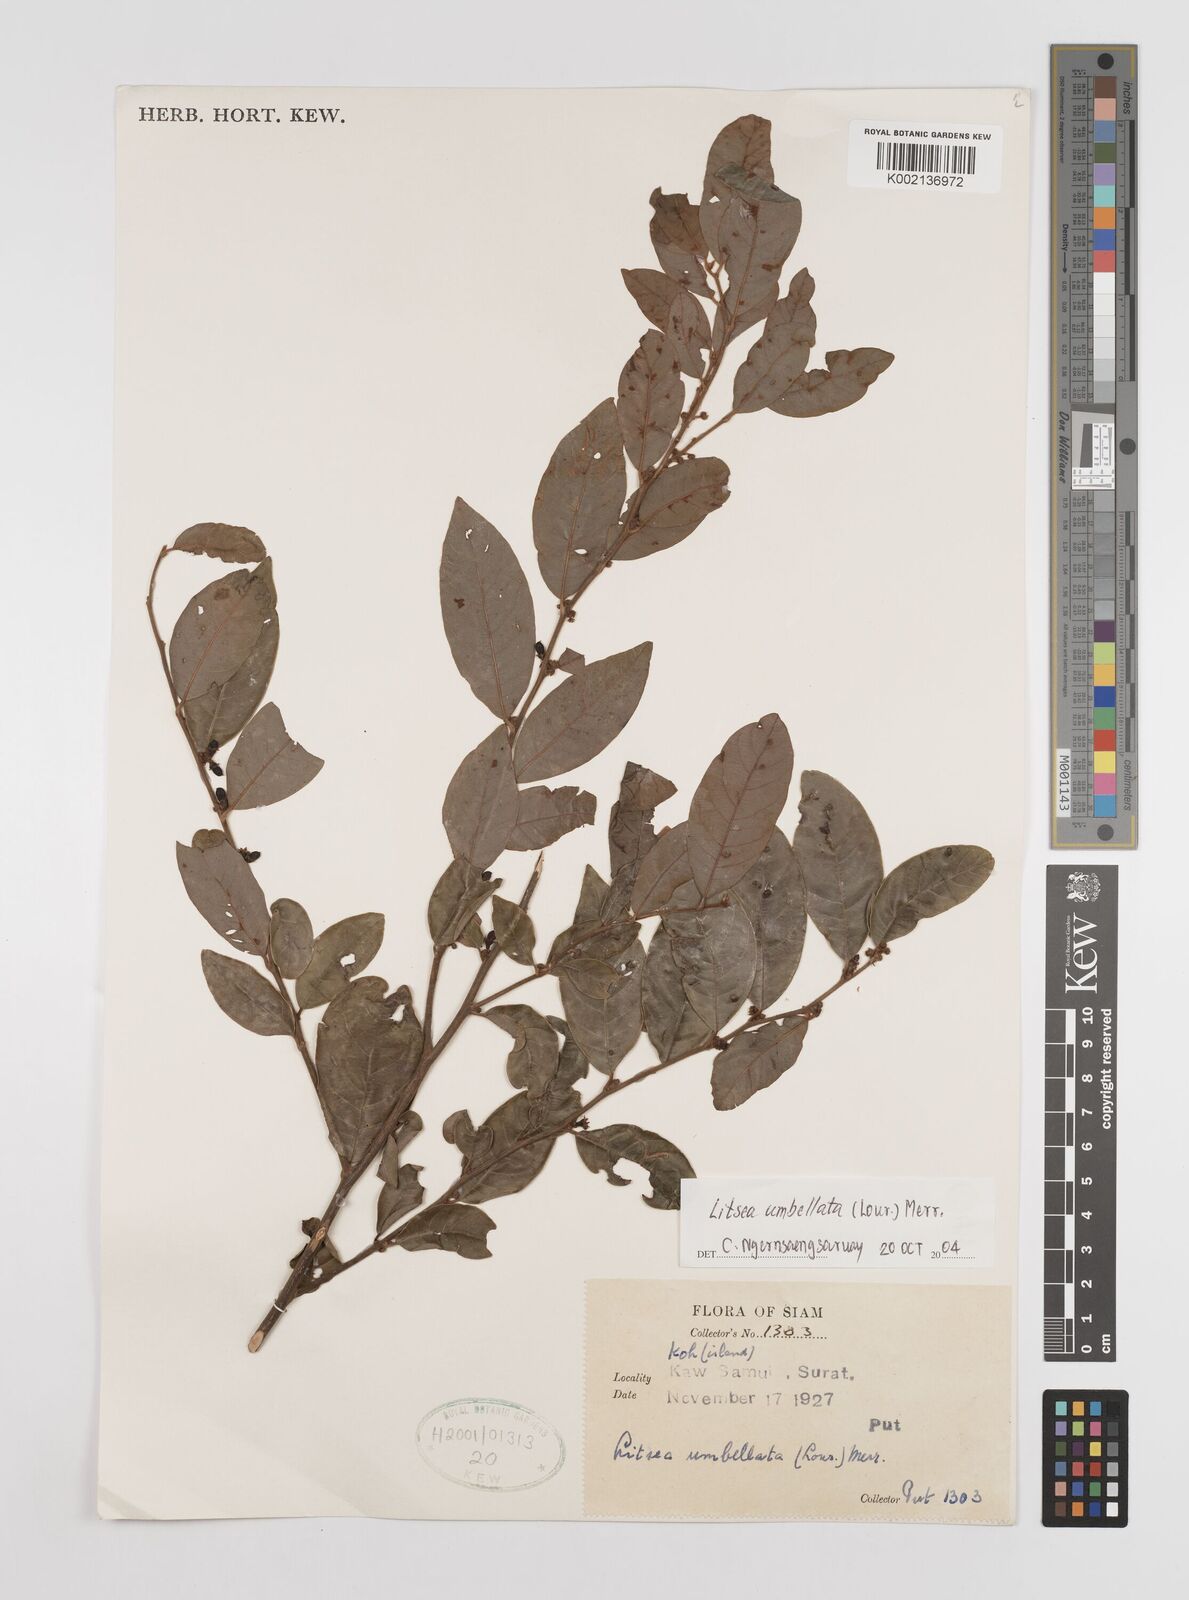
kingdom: Plantae
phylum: Tracheophyta
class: Magnoliopsida
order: Laurales
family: Lauraceae
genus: Litsea
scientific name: Litsea umbellata
